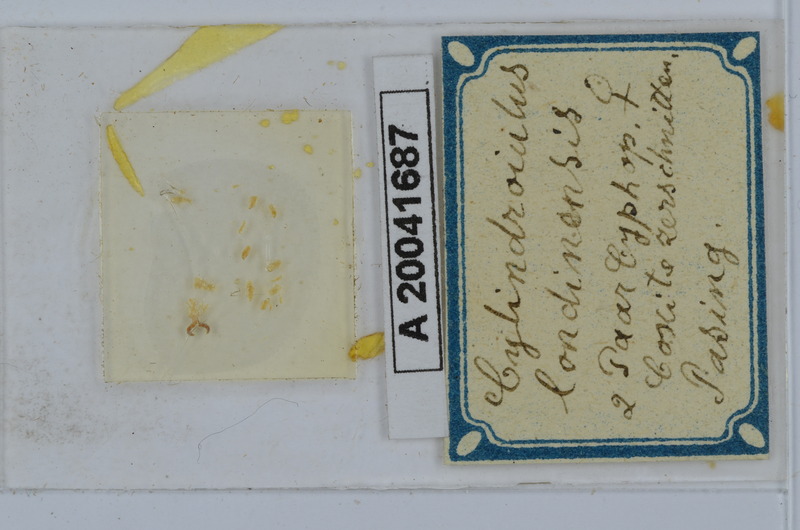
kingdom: Animalia
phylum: Arthropoda
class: Diplopoda
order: Julida
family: Julidae
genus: Cylindroiulus
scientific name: Cylindroiulus londinensis
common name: Black millipede
